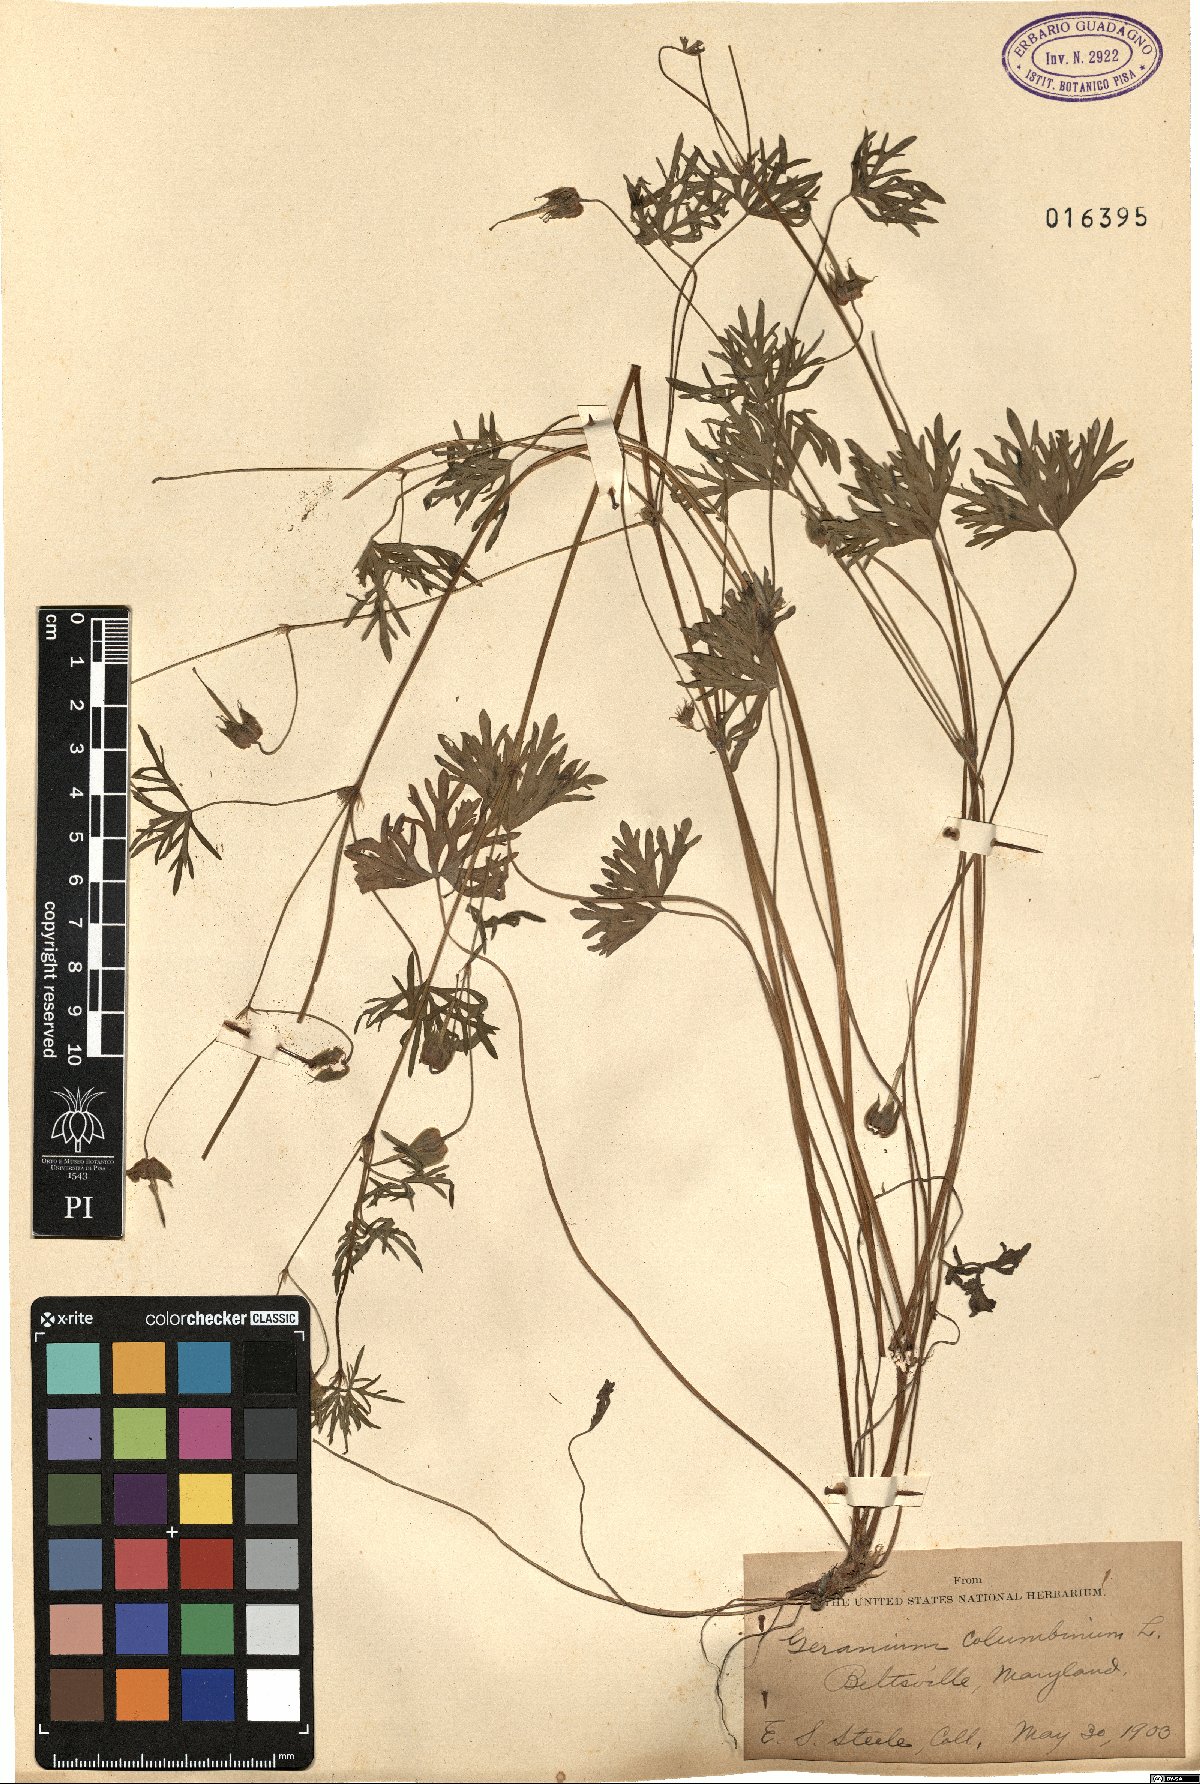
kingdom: Plantae
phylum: Tracheophyta
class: Magnoliopsida
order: Geraniales
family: Geraniaceae
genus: Geranium
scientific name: Geranium columbinum
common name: Long-stalked crane's-bill
